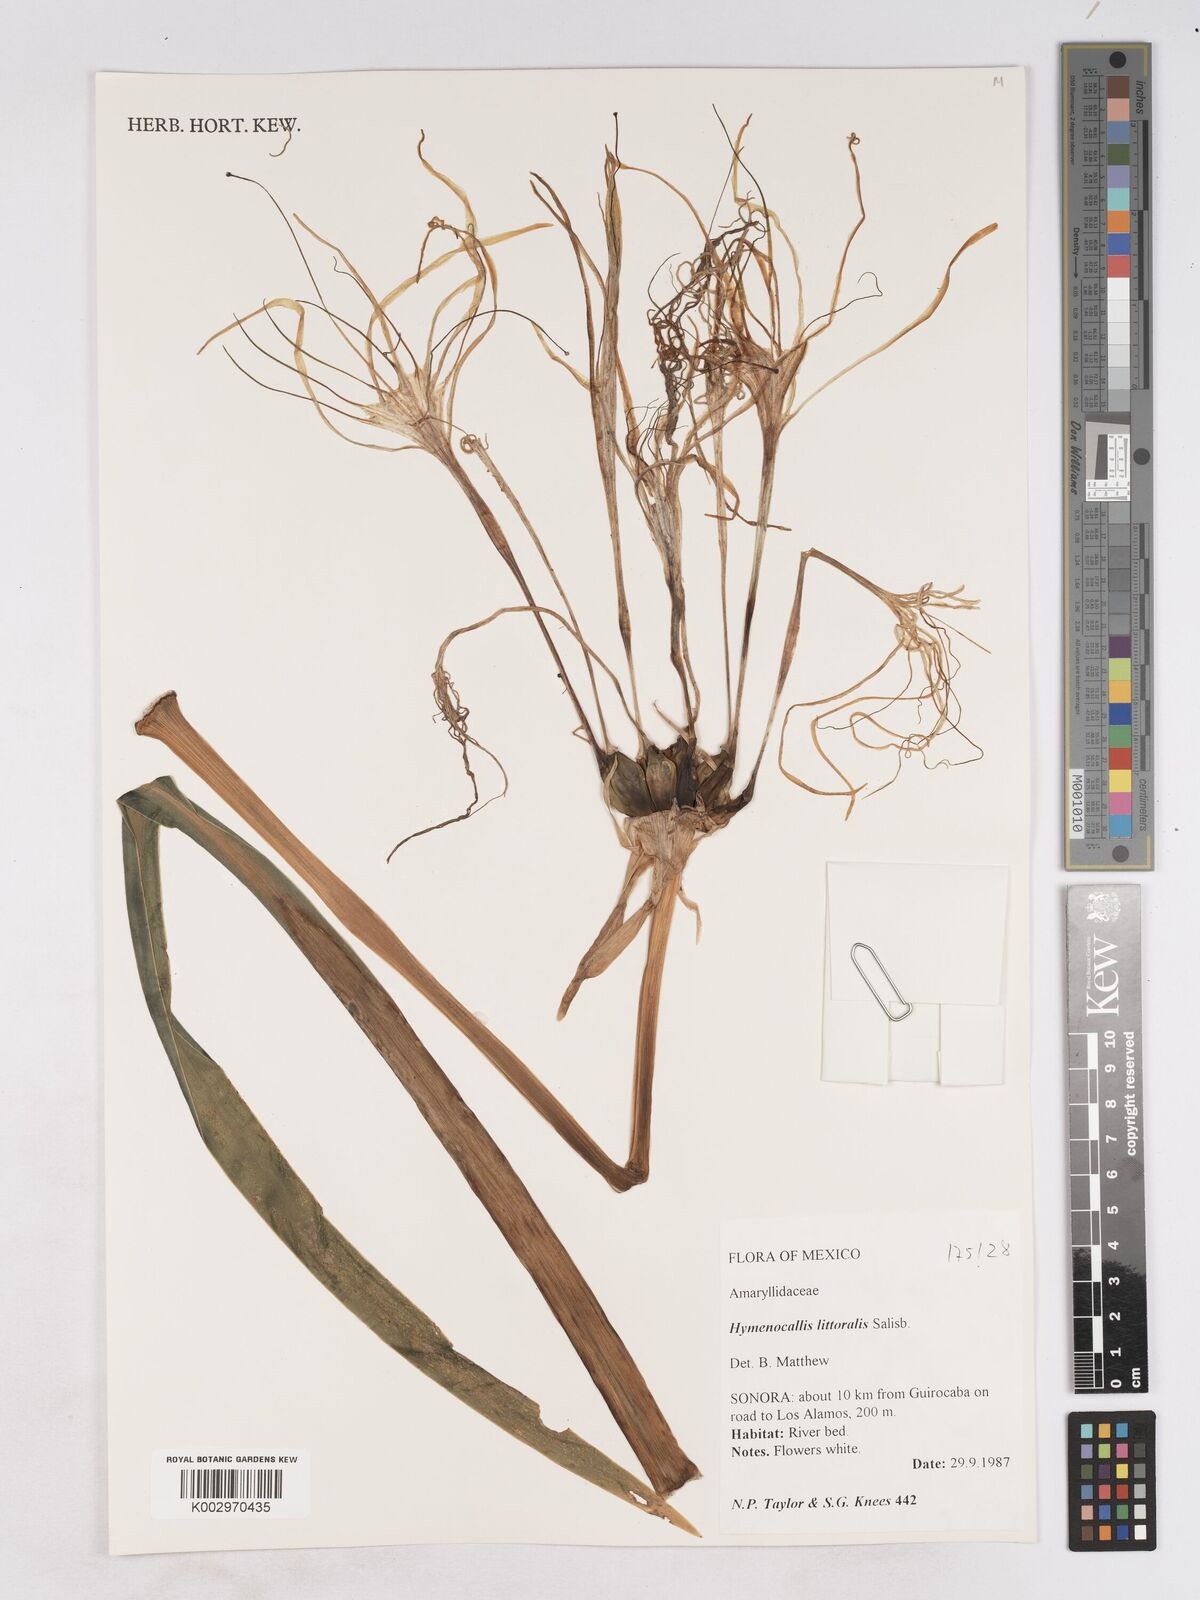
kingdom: Plantae
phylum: Tracheophyta
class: Liliopsida
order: Asparagales
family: Amaryllidaceae
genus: Hymenocallis
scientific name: Hymenocallis acutifolia
